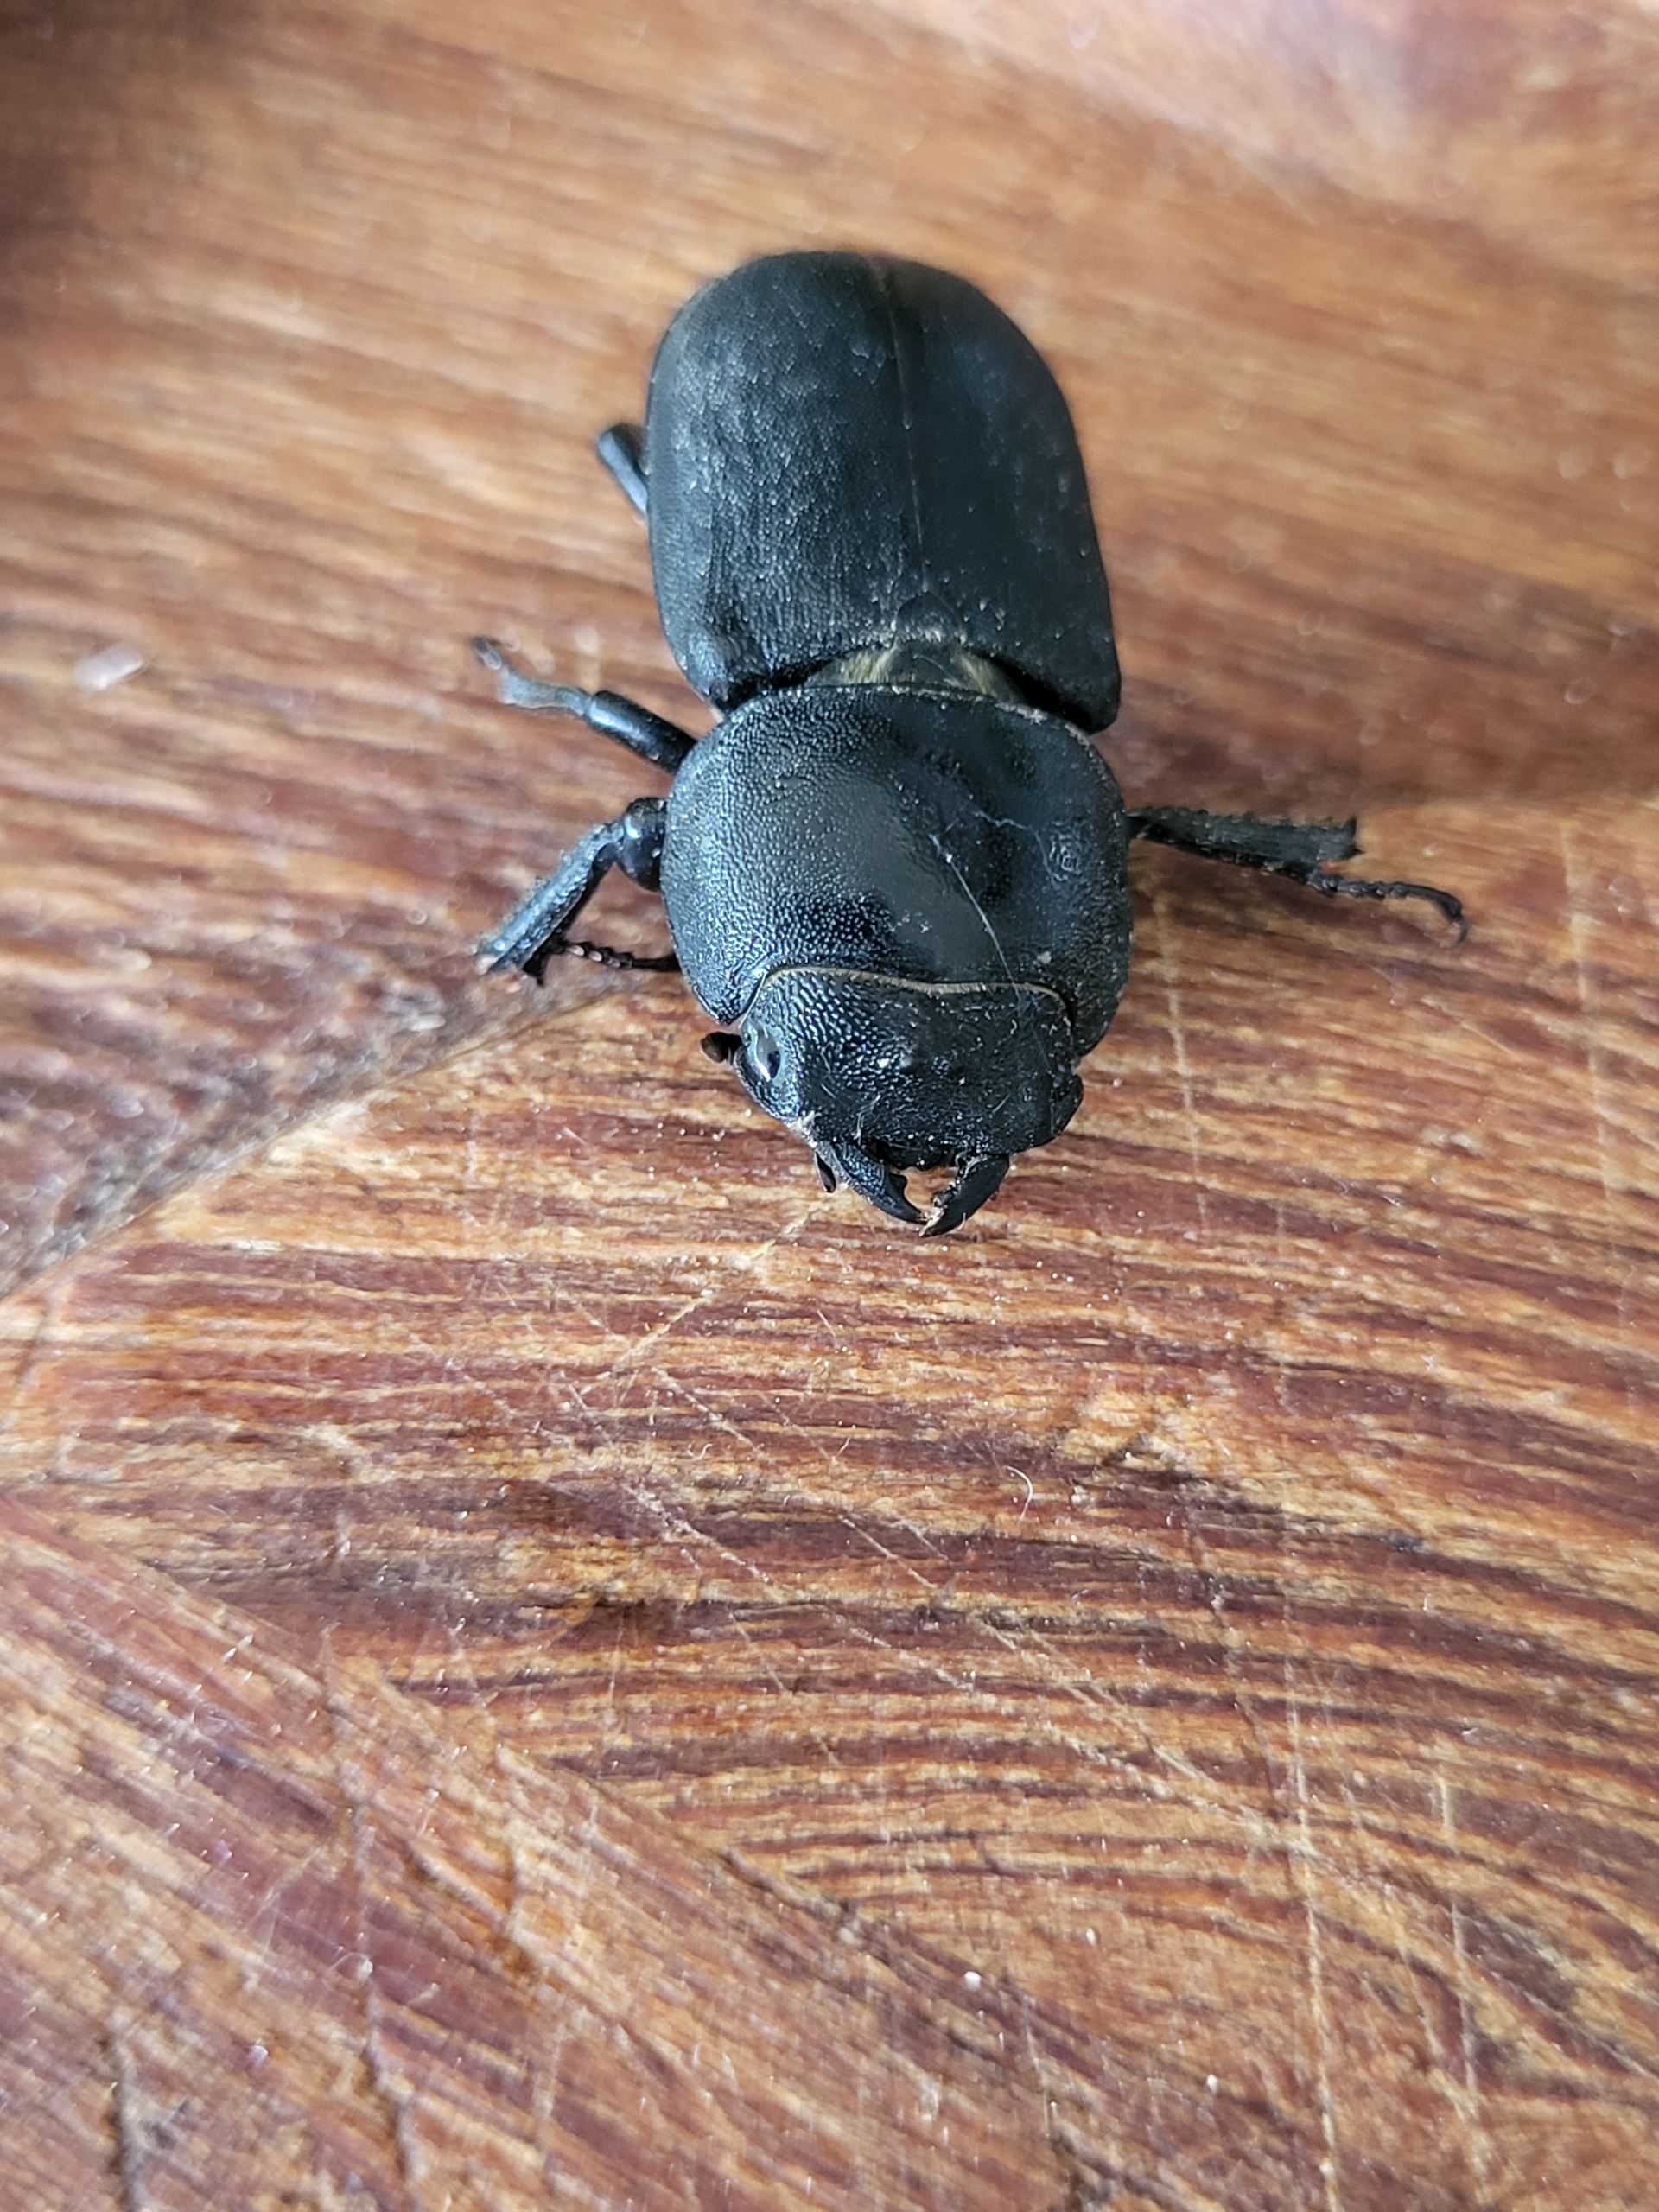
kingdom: Animalia
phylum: Arthropoda
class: Insecta
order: Coleoptera
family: Lucanidae
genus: Dorcus
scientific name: Dorcus parallelipipedus
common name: Bøghjort
